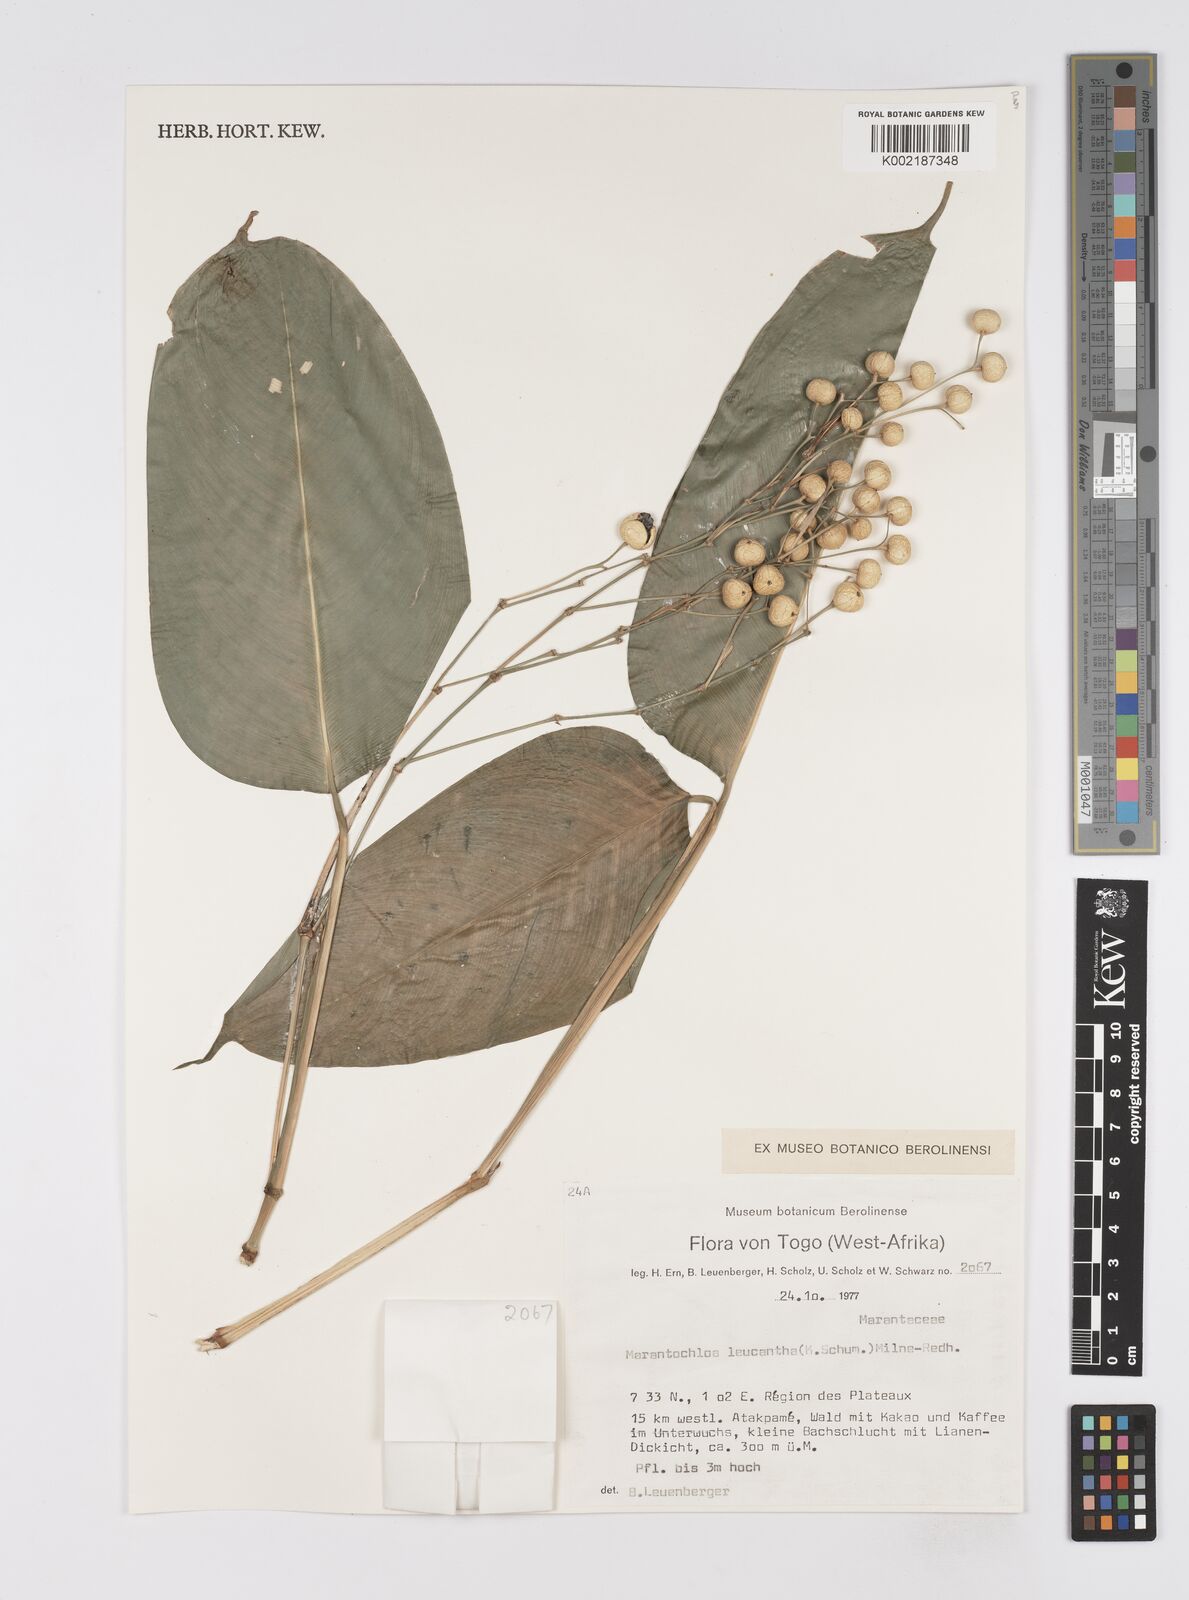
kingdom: Plantae
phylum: Tracheophyta
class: Liliopsida
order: Zingiberales
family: Marantaceae
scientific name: Marantaceae
